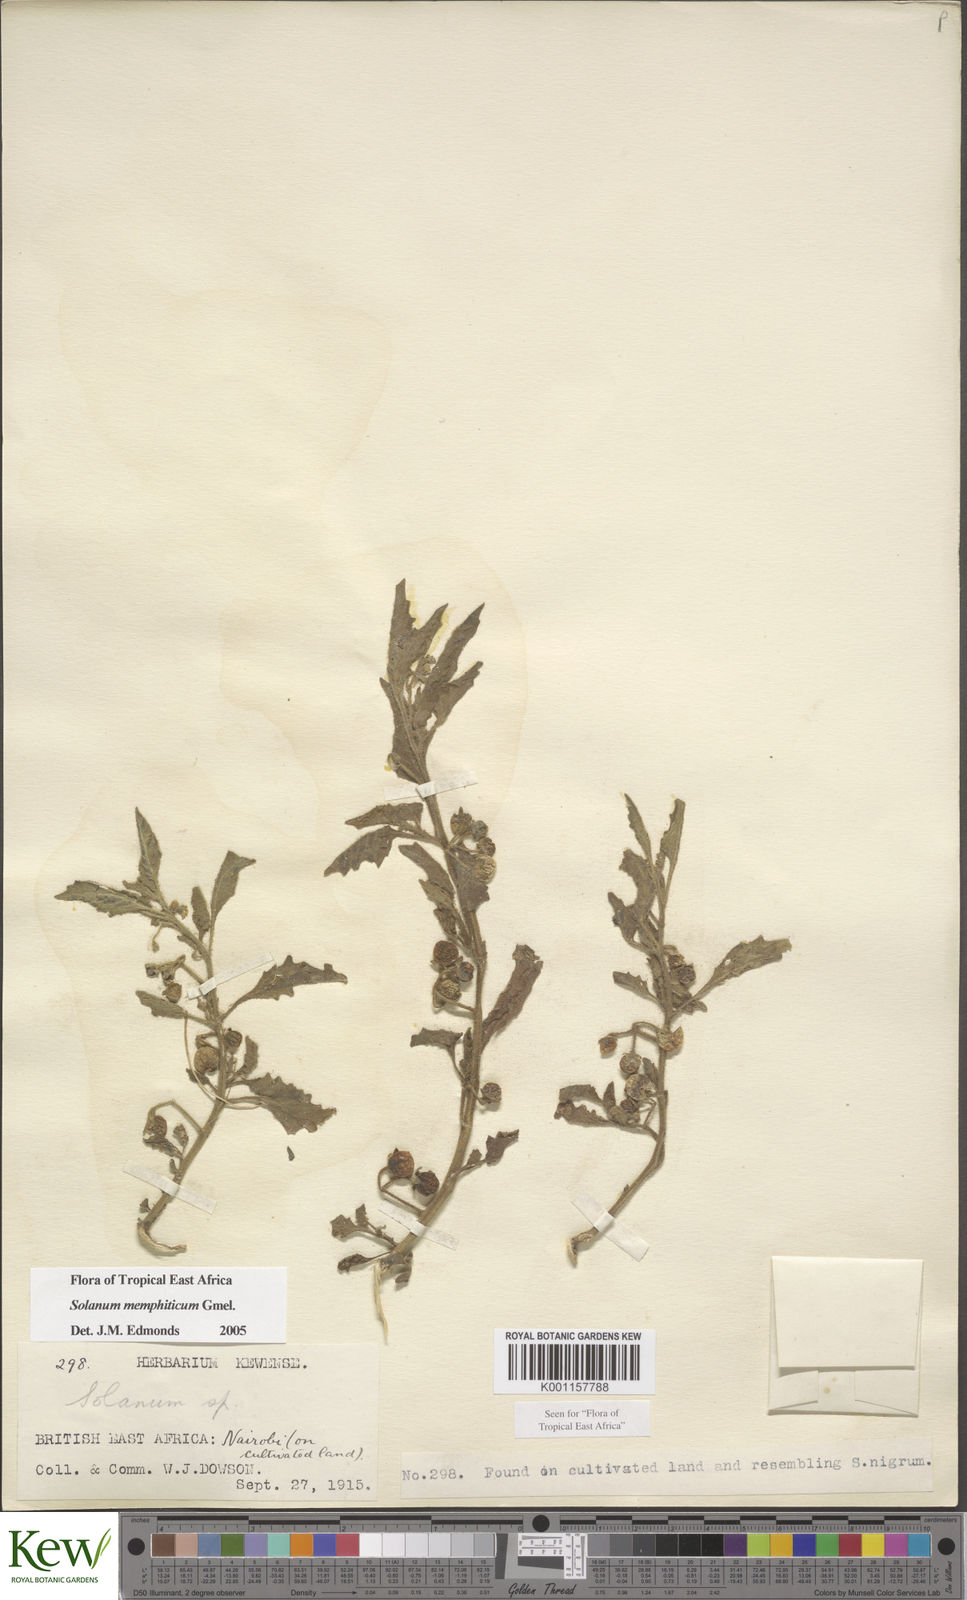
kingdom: Plantae
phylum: Tracheophyta
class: Magnoliopsida
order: Solanales
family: Solanaceae
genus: Solanum
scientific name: Solanum memphiticum
